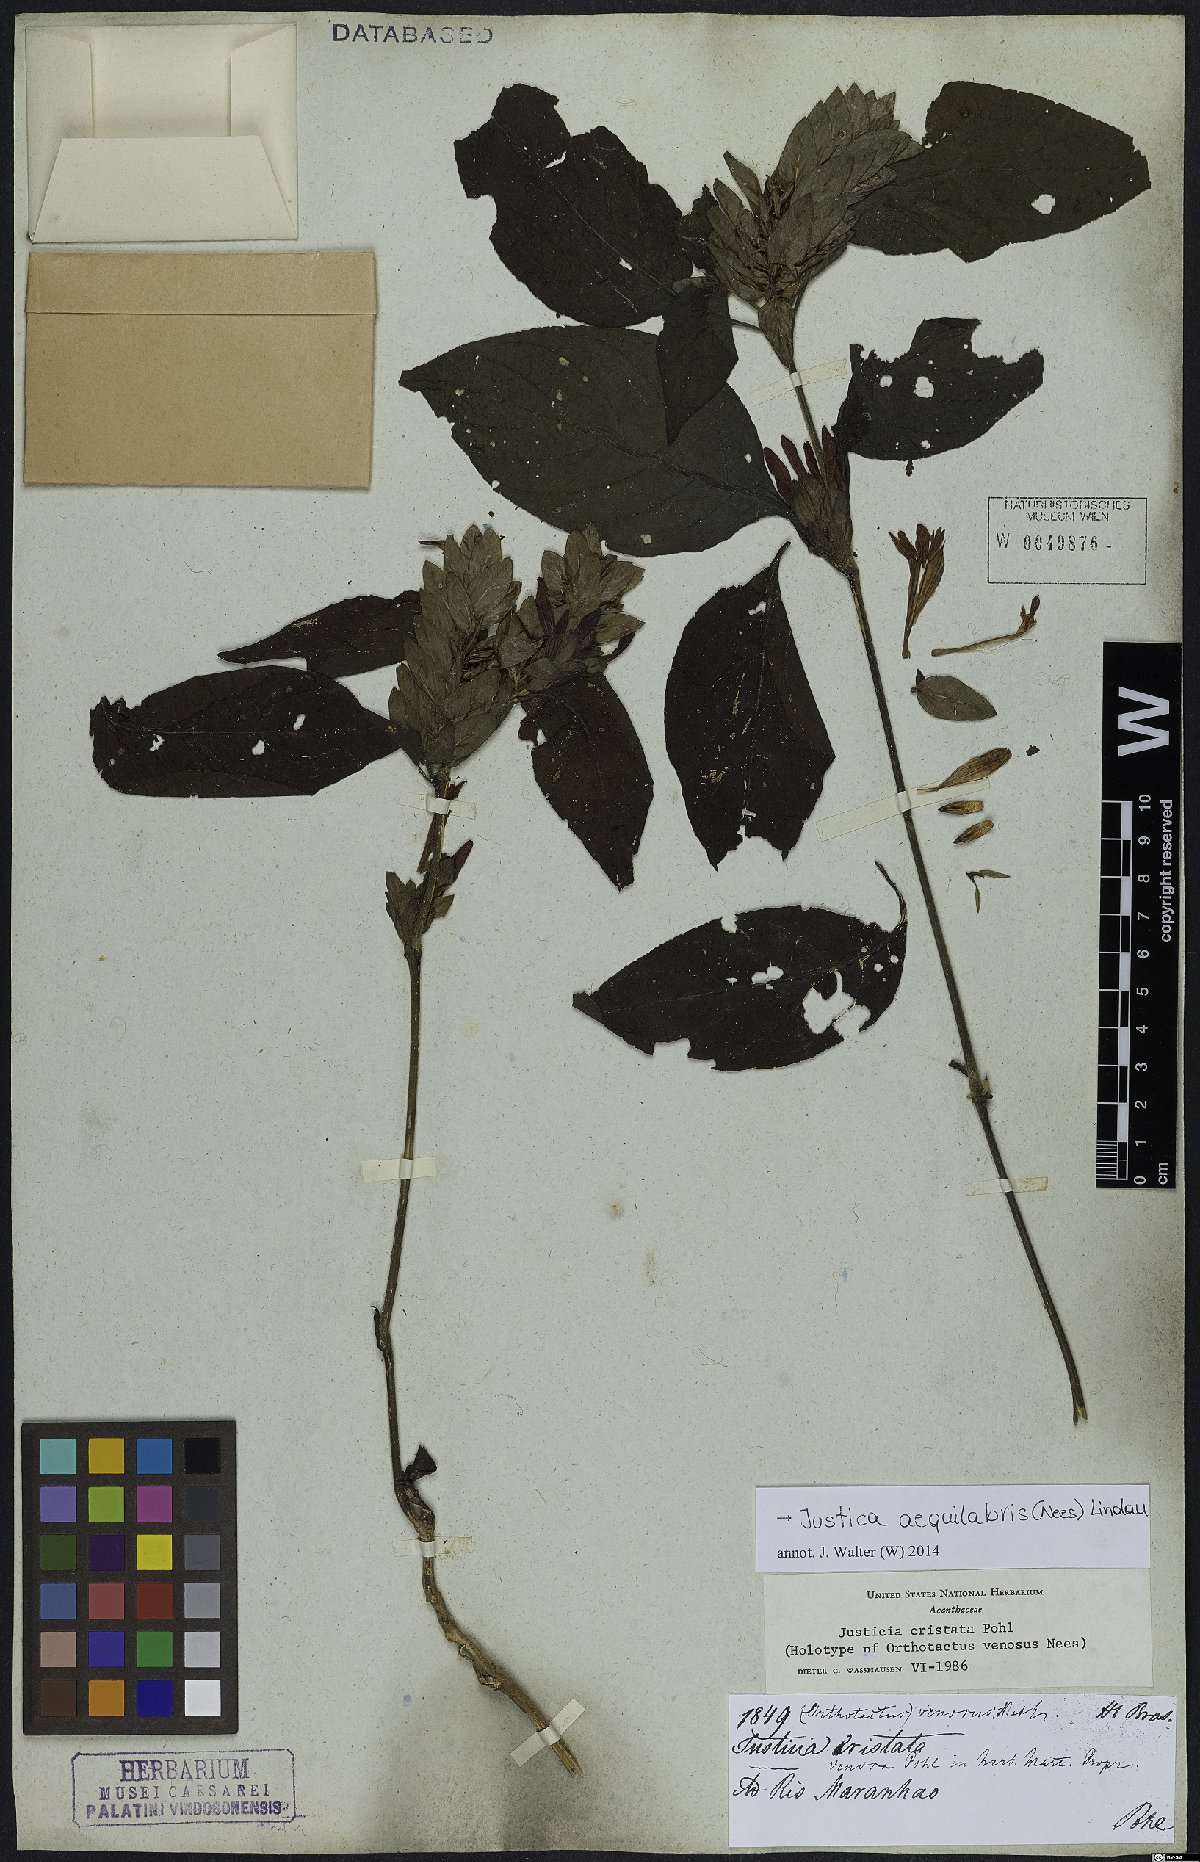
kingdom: Plantae
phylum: Tracheophyta
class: Magnoliopsida
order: Lamiales
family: Acanthaceae
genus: Justicia
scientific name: Justicia aequilabris
